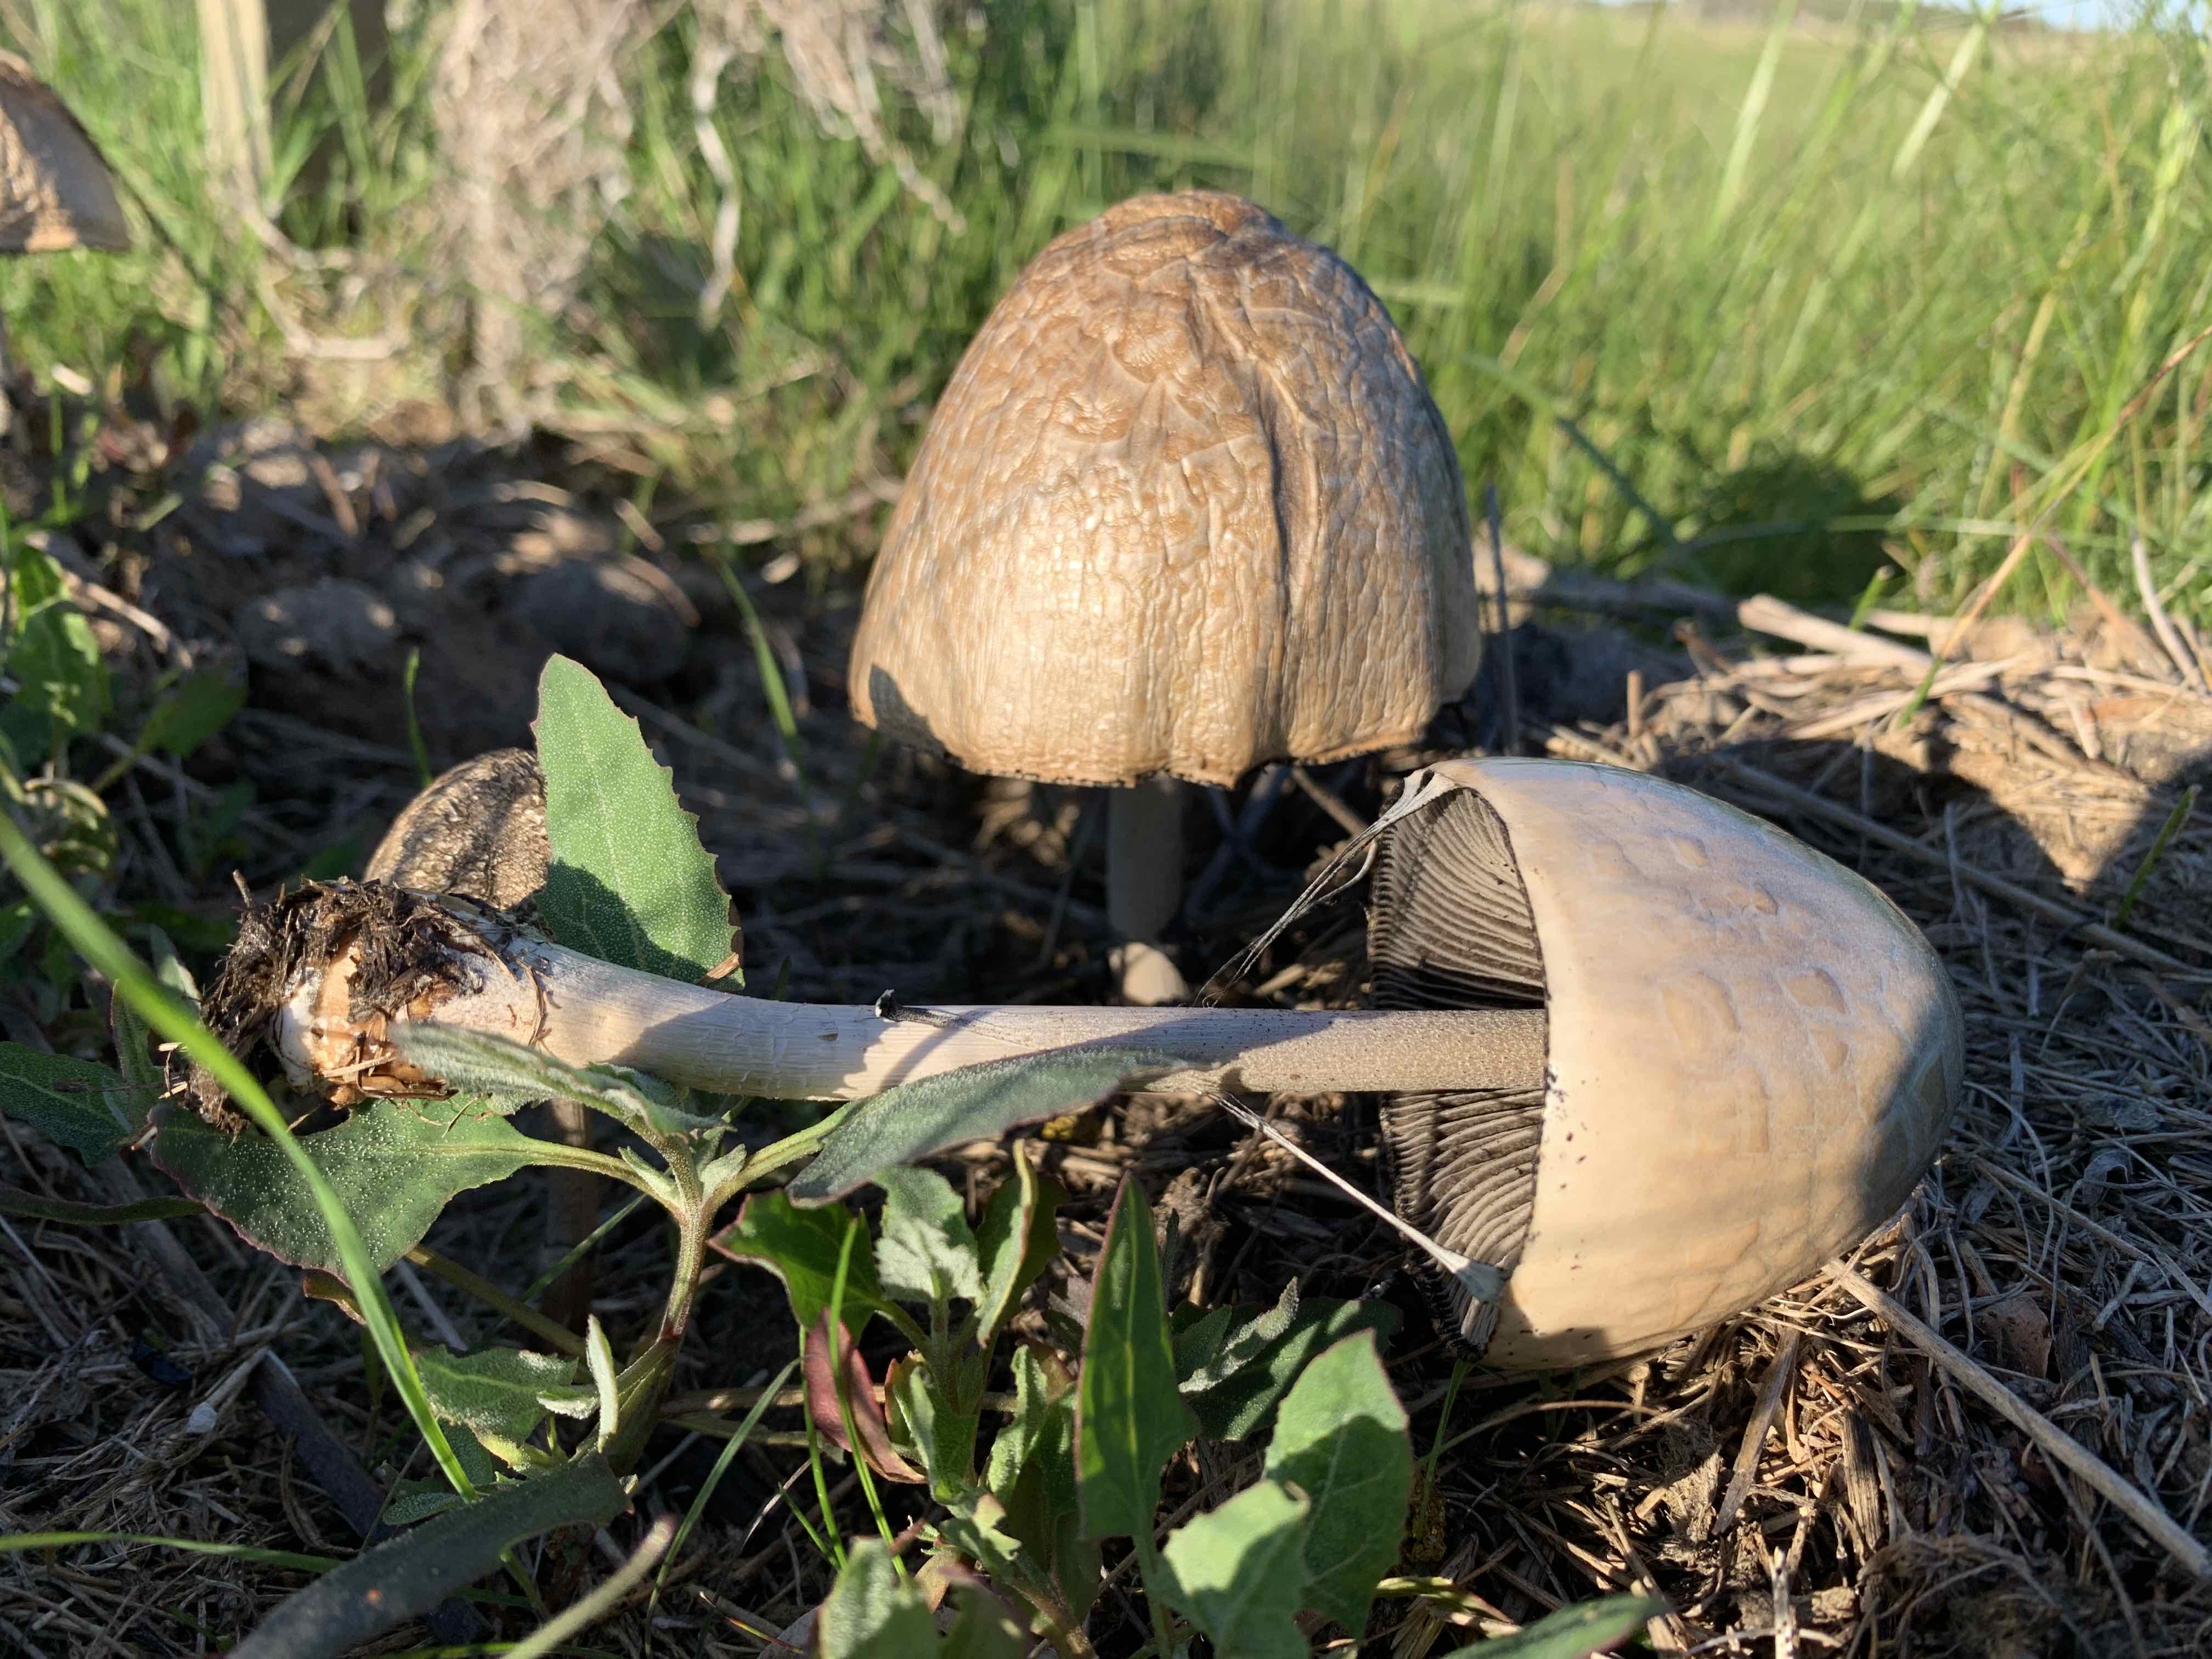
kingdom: Fungi
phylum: Basidiomycota
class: Agaricomycetes
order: Agaricales
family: Bolbitiaceae
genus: Panaeolus
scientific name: Panaeolus semiovatus
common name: ring-glanshat
